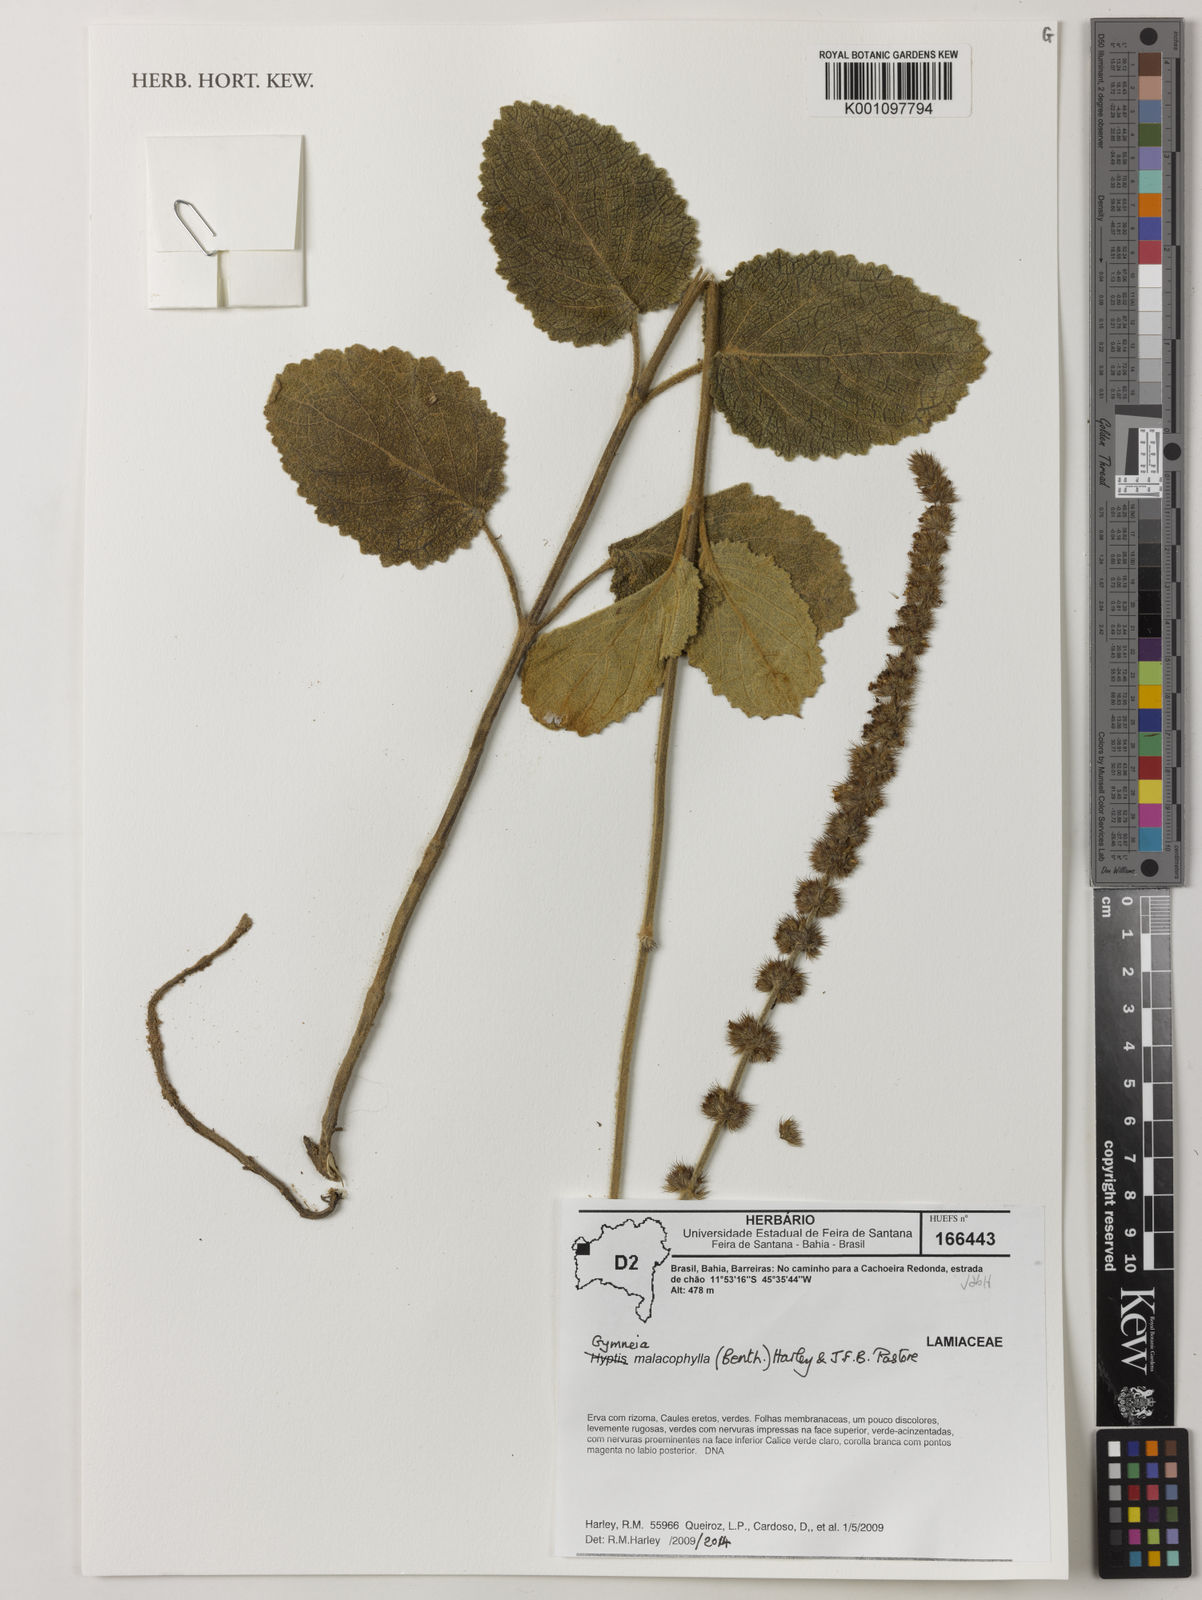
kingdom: Plantae
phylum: Tracheophyta
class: Magnoliopsida
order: Lamiales
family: Lamiaceae
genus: Gymneia
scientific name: Gymneia malacophylla
